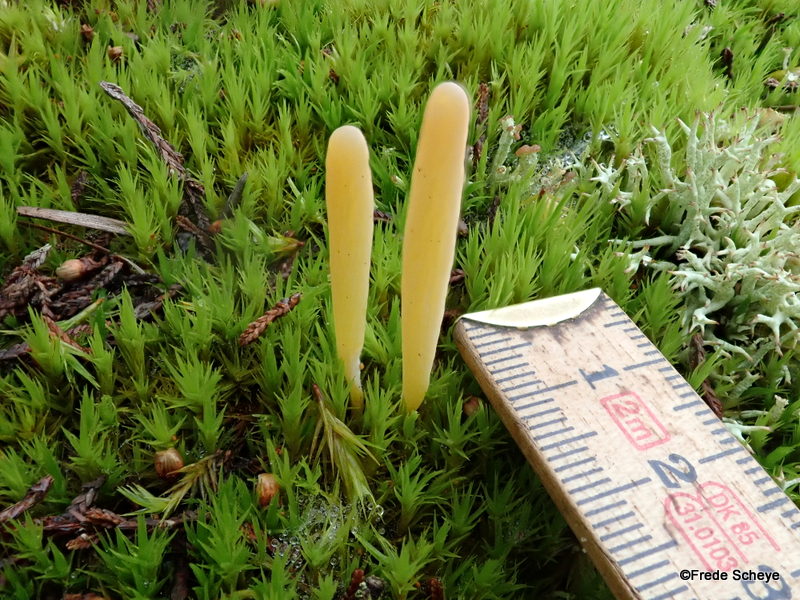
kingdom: Fungi
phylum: Basidiomycota
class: Agaricomycetes
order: Agaricales
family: Clavariaceae
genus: Clavaria
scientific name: Clavaria argillacea
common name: lerfarvet køllesvamp
